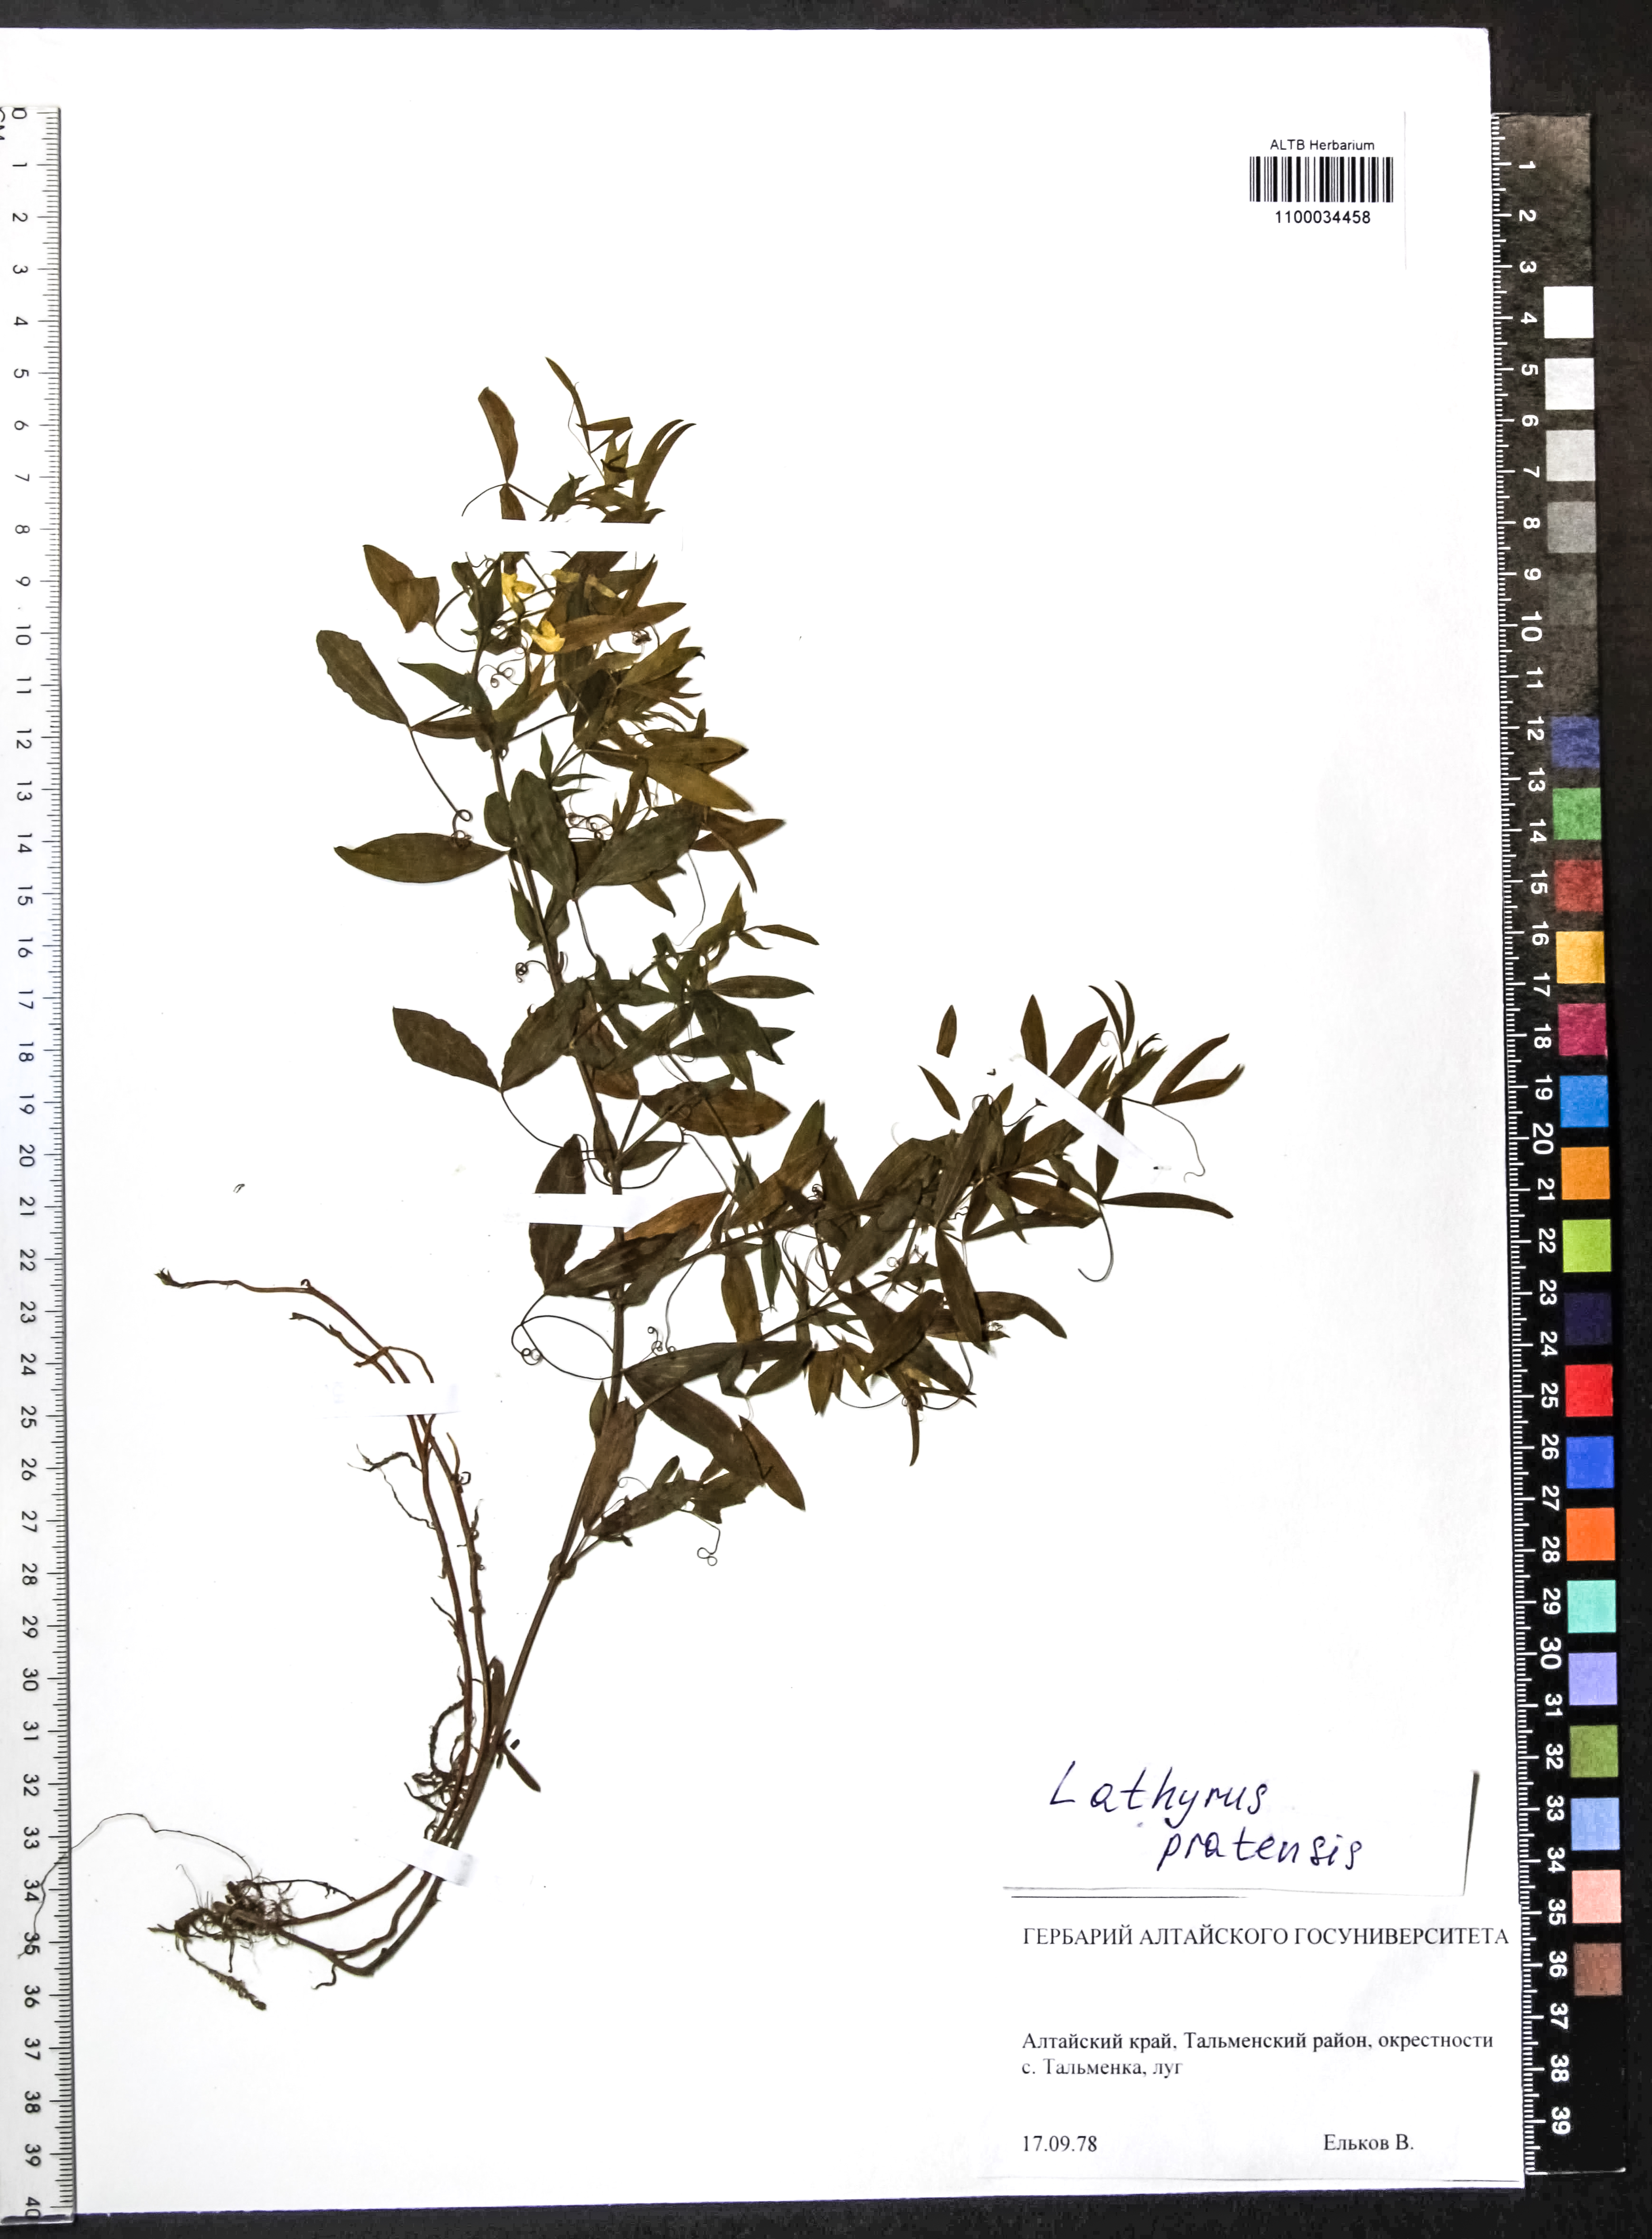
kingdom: Plantae
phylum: Tracheophyta
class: Magnoliopsida
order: Fabales
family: Fabaceae
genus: Lathyrus
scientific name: Lathyrus pratensis
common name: Meadow vetchling
